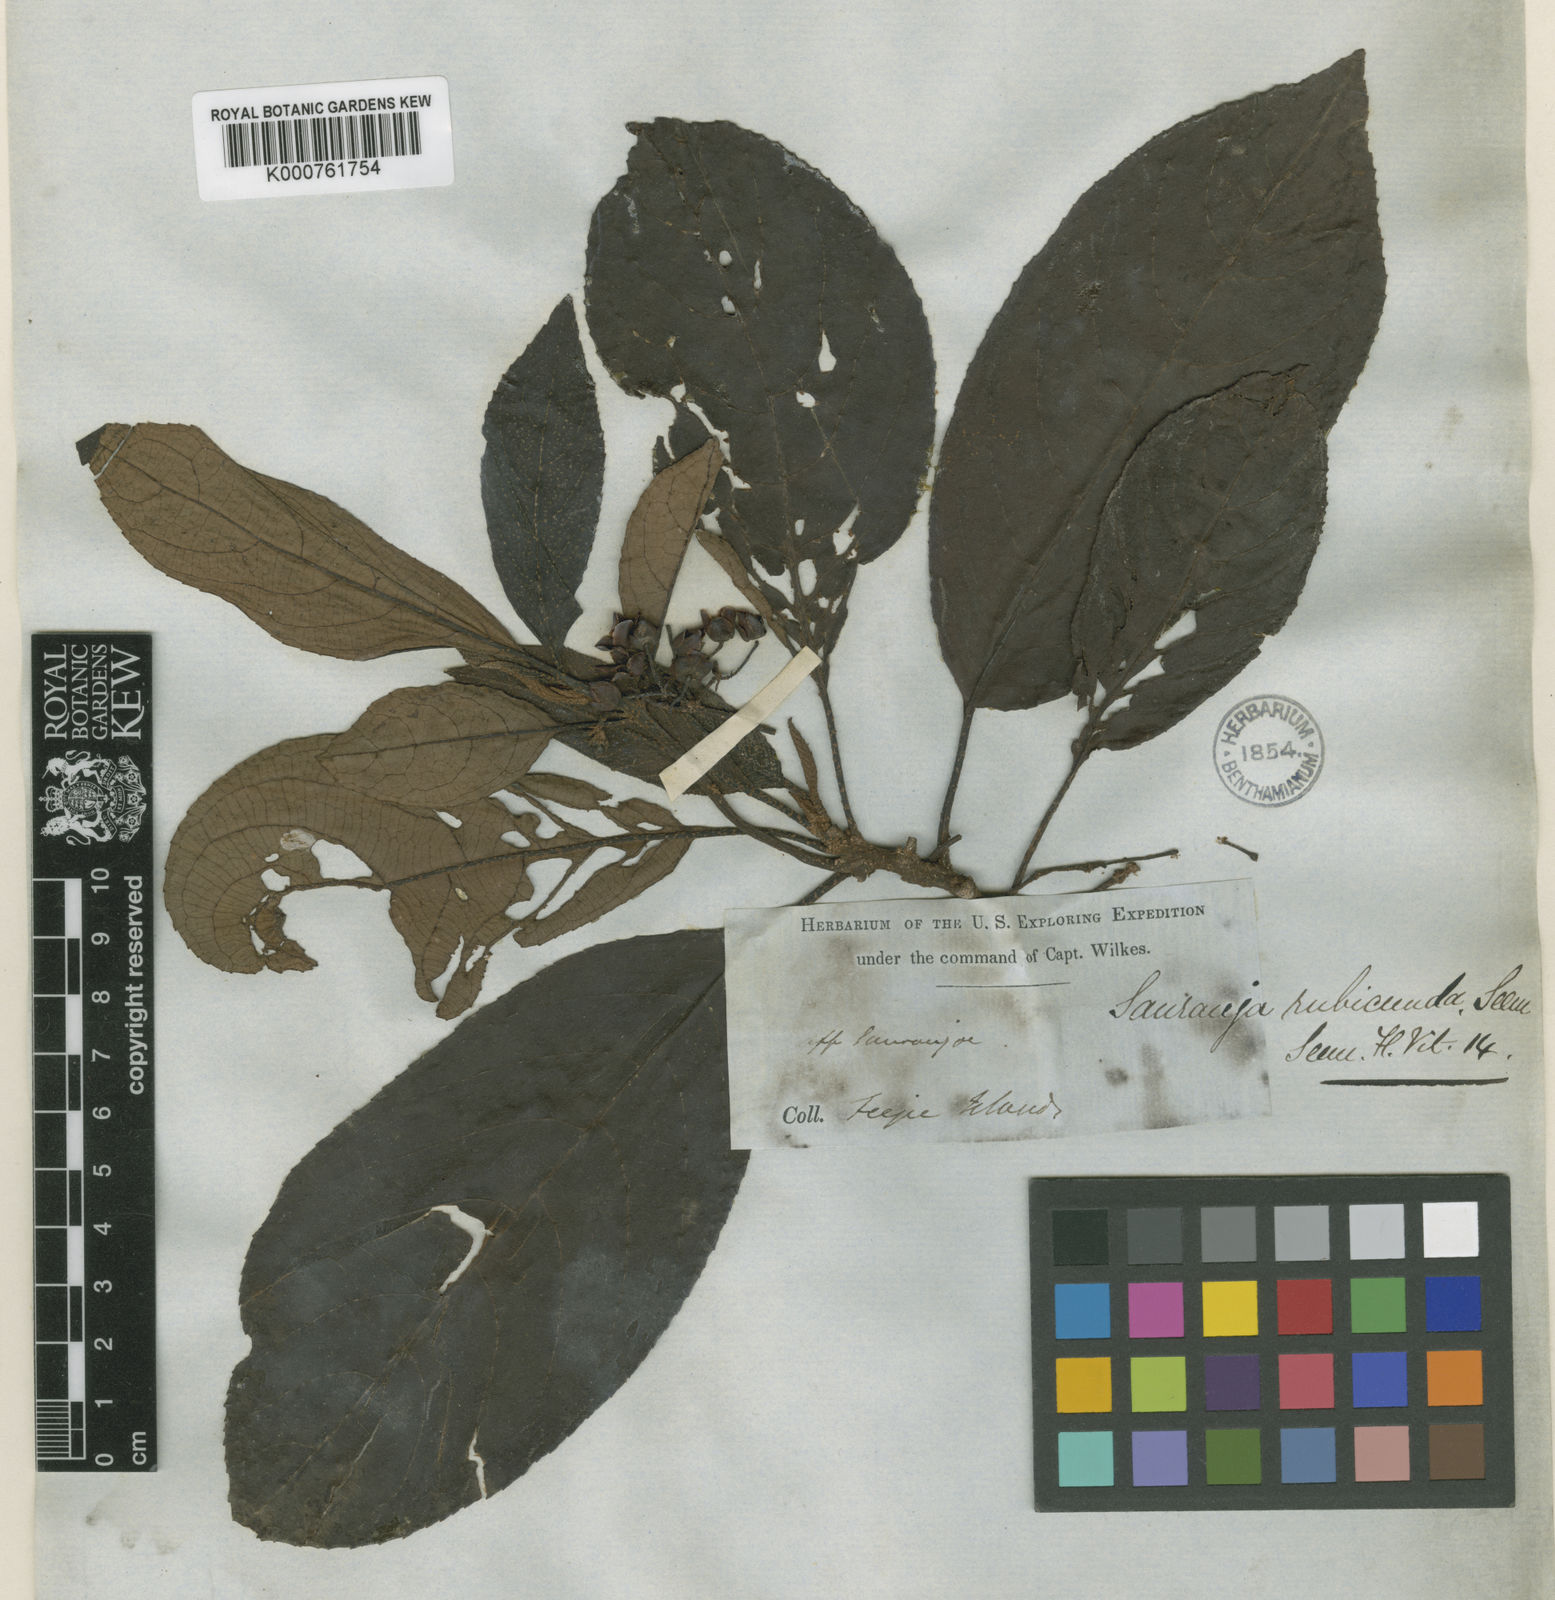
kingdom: Plantae
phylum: Tracheophyta
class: Magnoliopsida
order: Ericales
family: Actinidiaceae
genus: Saurauia
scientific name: Saurauia rubicunda
